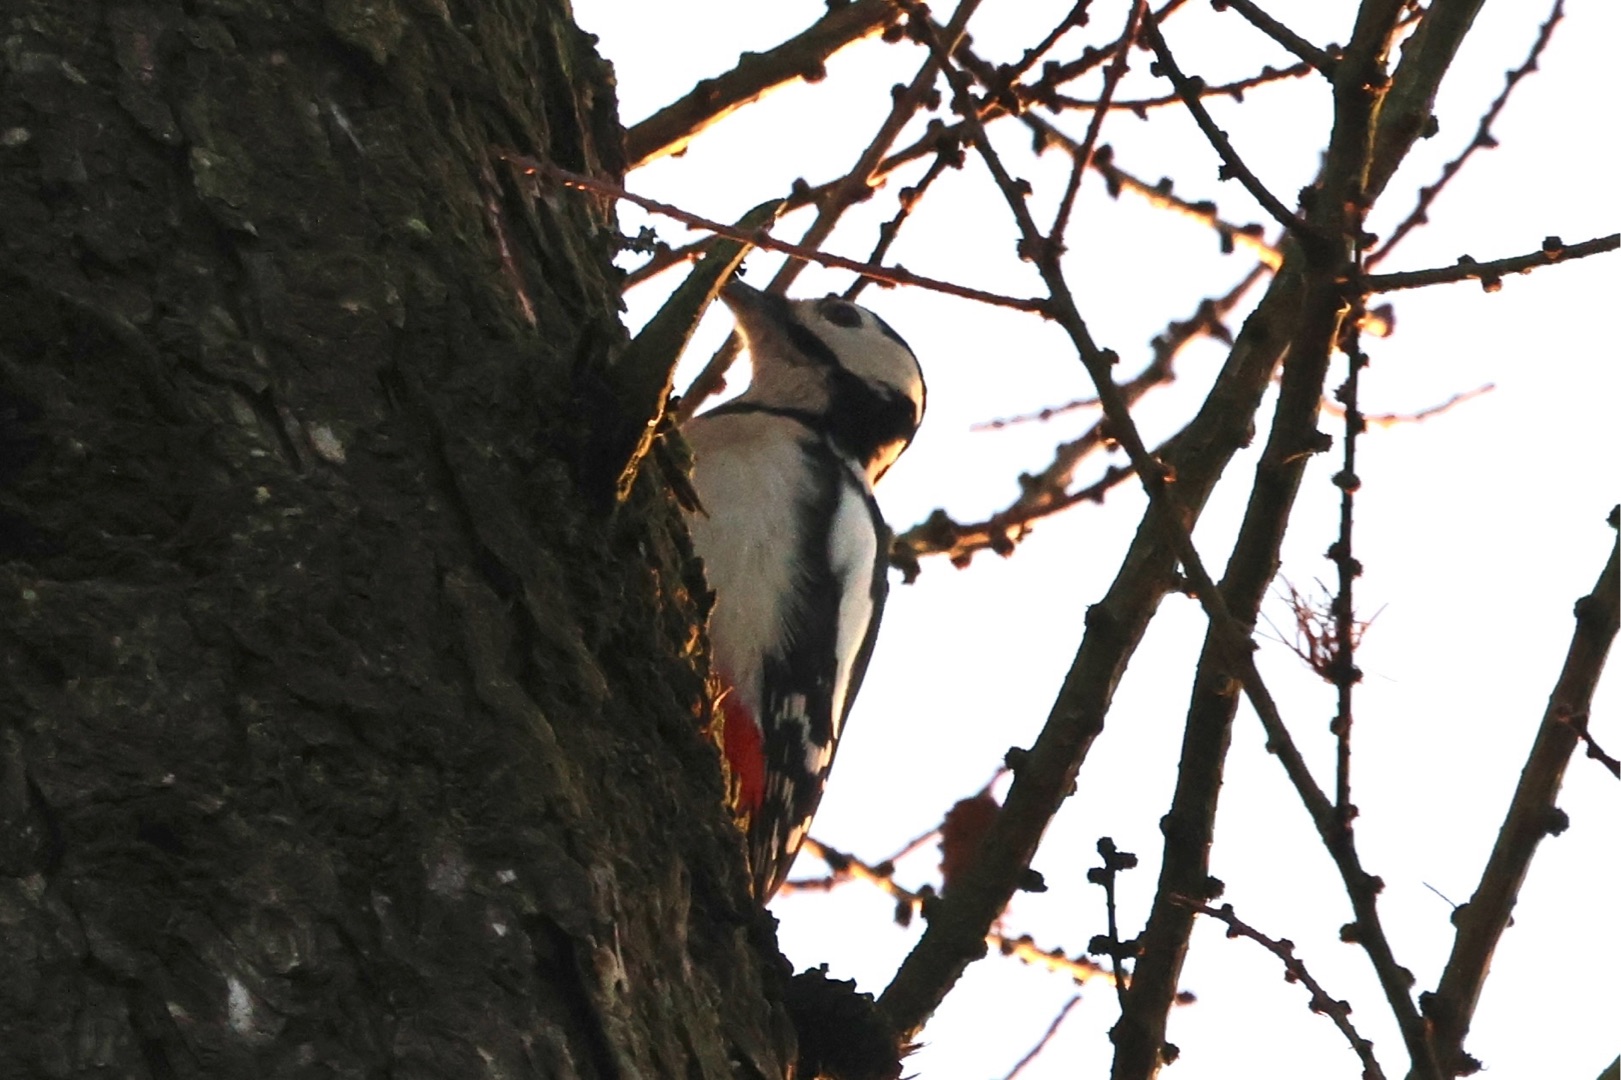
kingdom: Animalia
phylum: Chordata
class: Aves
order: Piciformes
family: Picidae
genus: Dendrocopos
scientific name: Dendrocopos major
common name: Stor flagspætte
